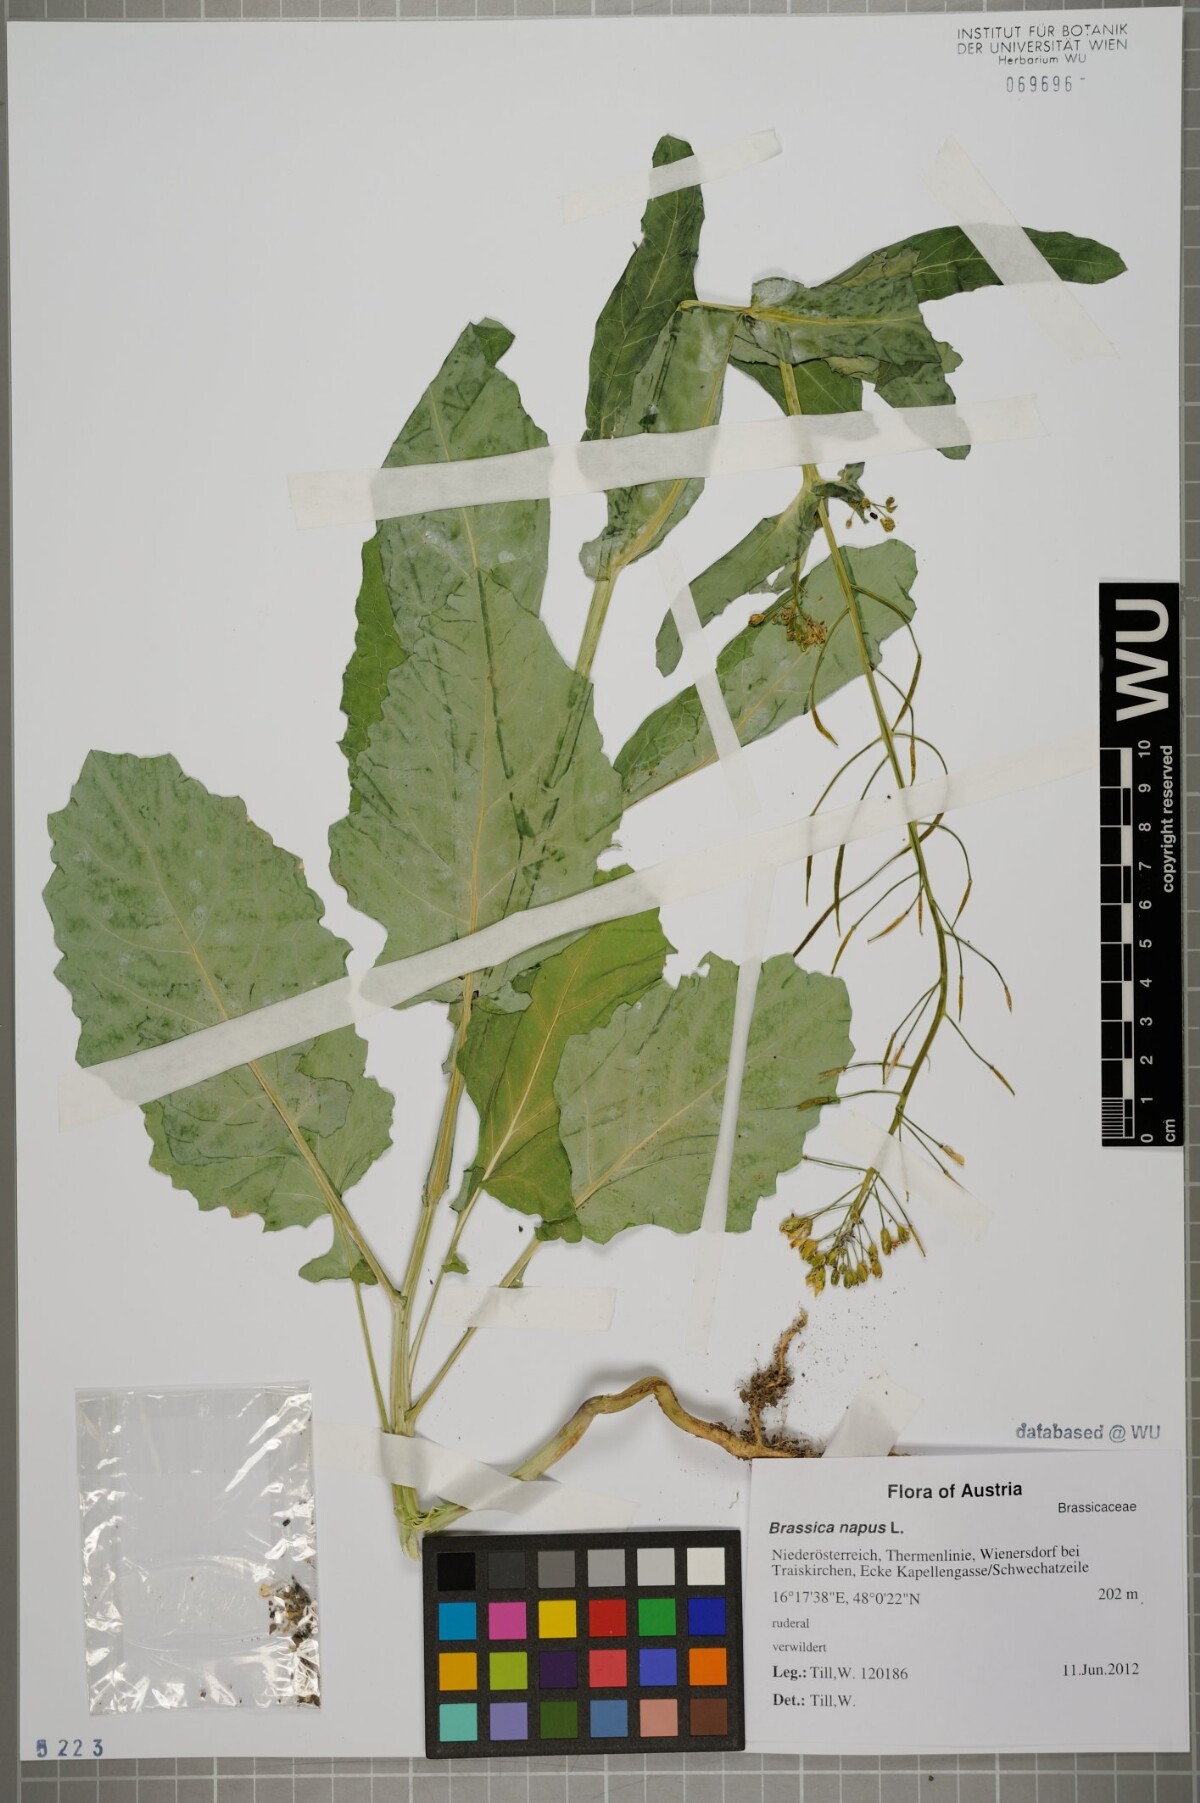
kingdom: Plantae
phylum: Tracheophyta
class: Magnoliopsida
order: Brassicales
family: Brassicaceae
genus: Brassica
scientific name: Brassica napus
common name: Rape
